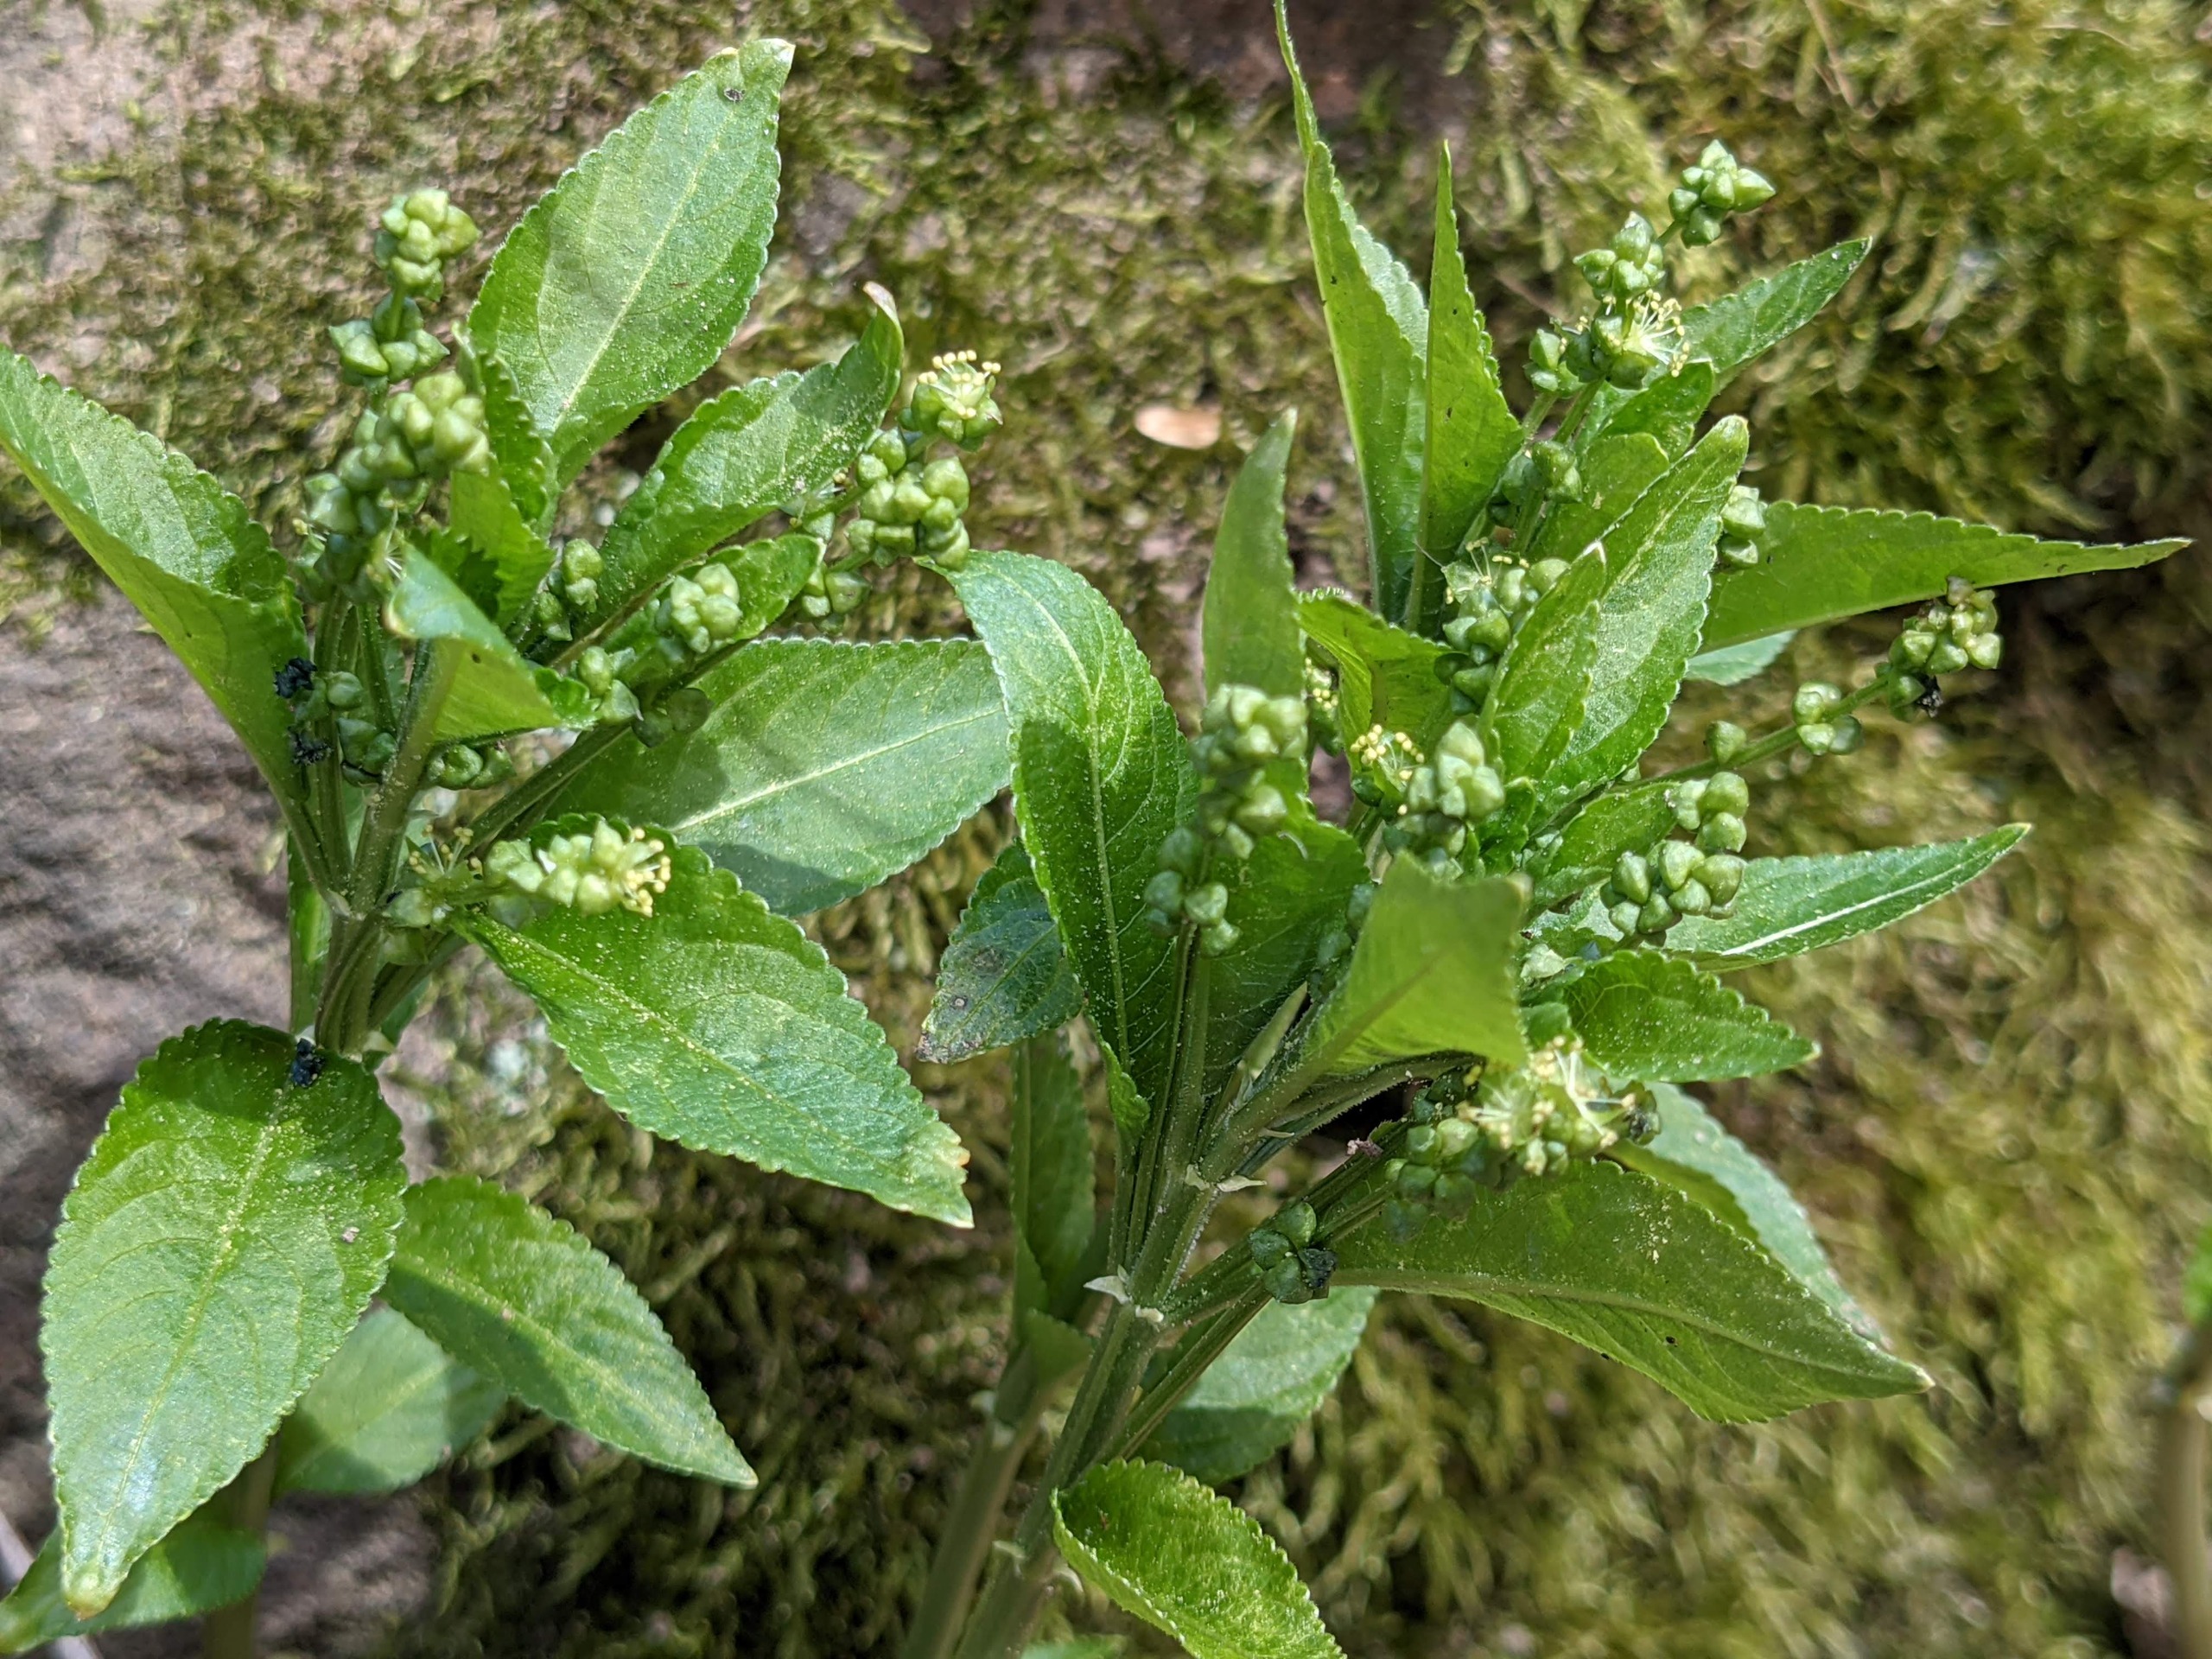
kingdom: Plantae
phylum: Tracheophyta
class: Magnoliopsida
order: Malpighiales
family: Euphorbiaceae
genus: Mercurialis
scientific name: Mercurialis perennis
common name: Almindelig bingelurt
